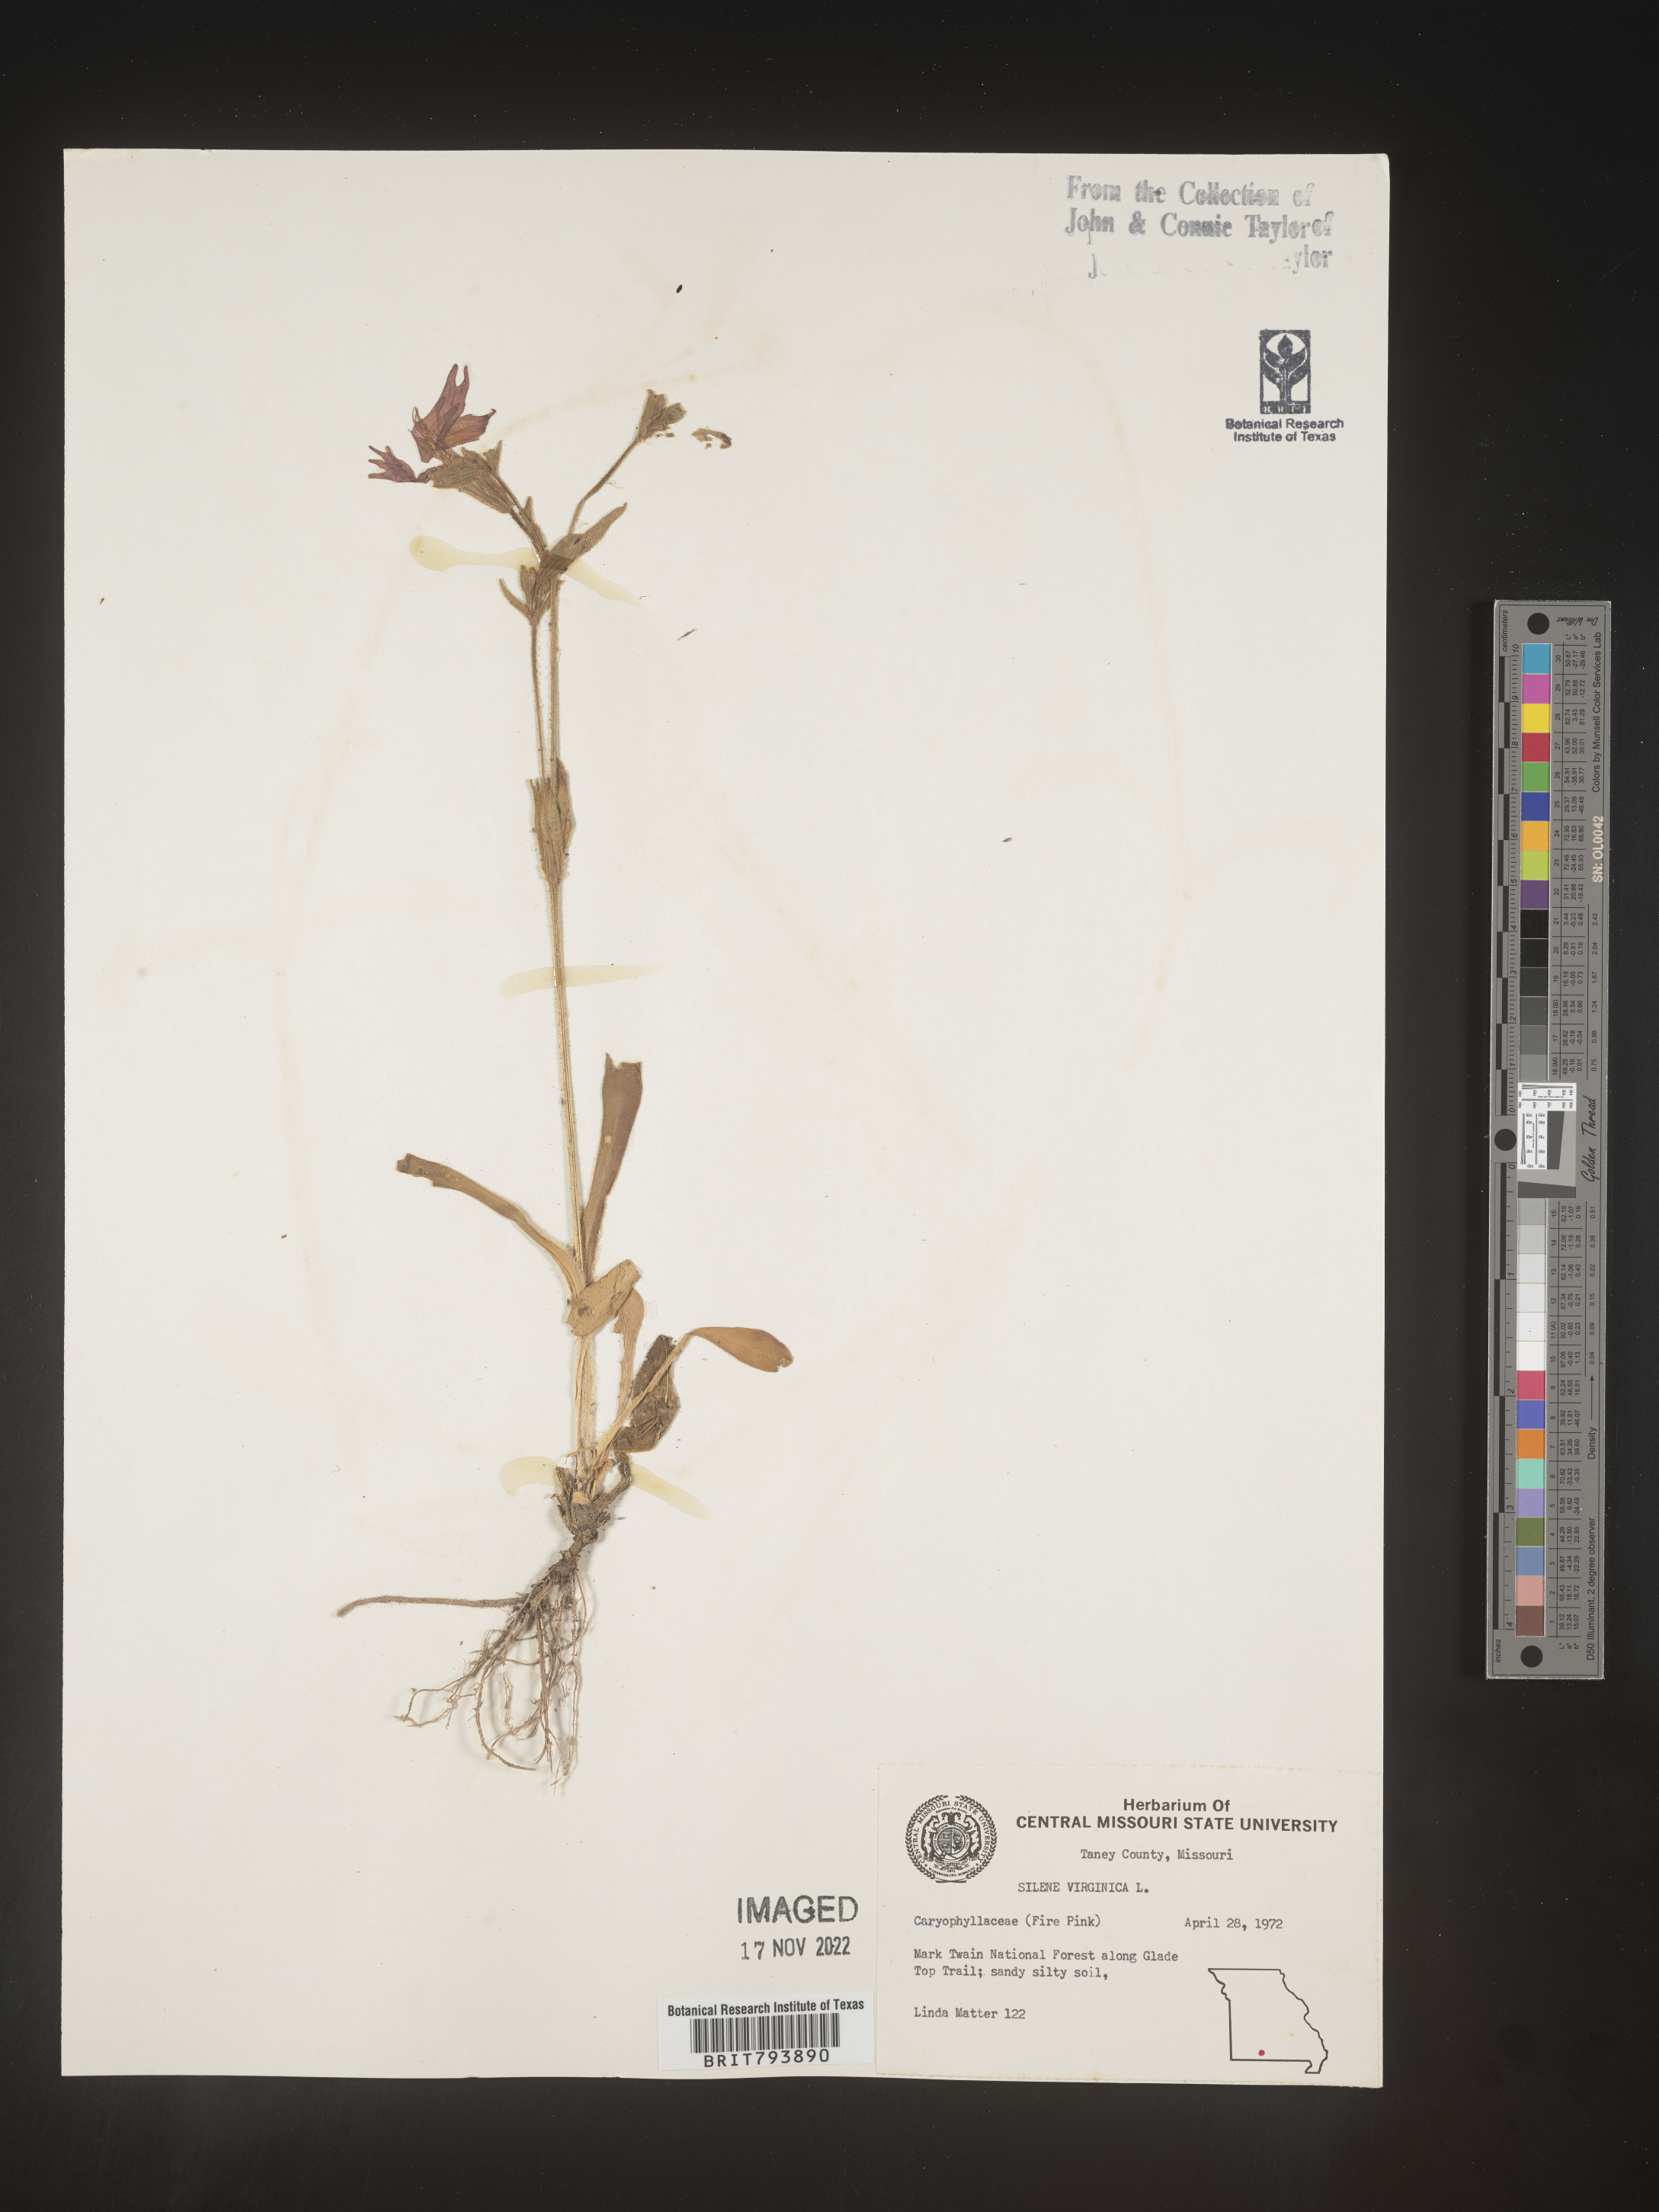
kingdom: Plantae
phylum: Tracheophyta
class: Magnoliopsida
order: Caryophyllales
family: Caryophyllaceae
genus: Silene
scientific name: Silene virginica
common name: Fire-pink
